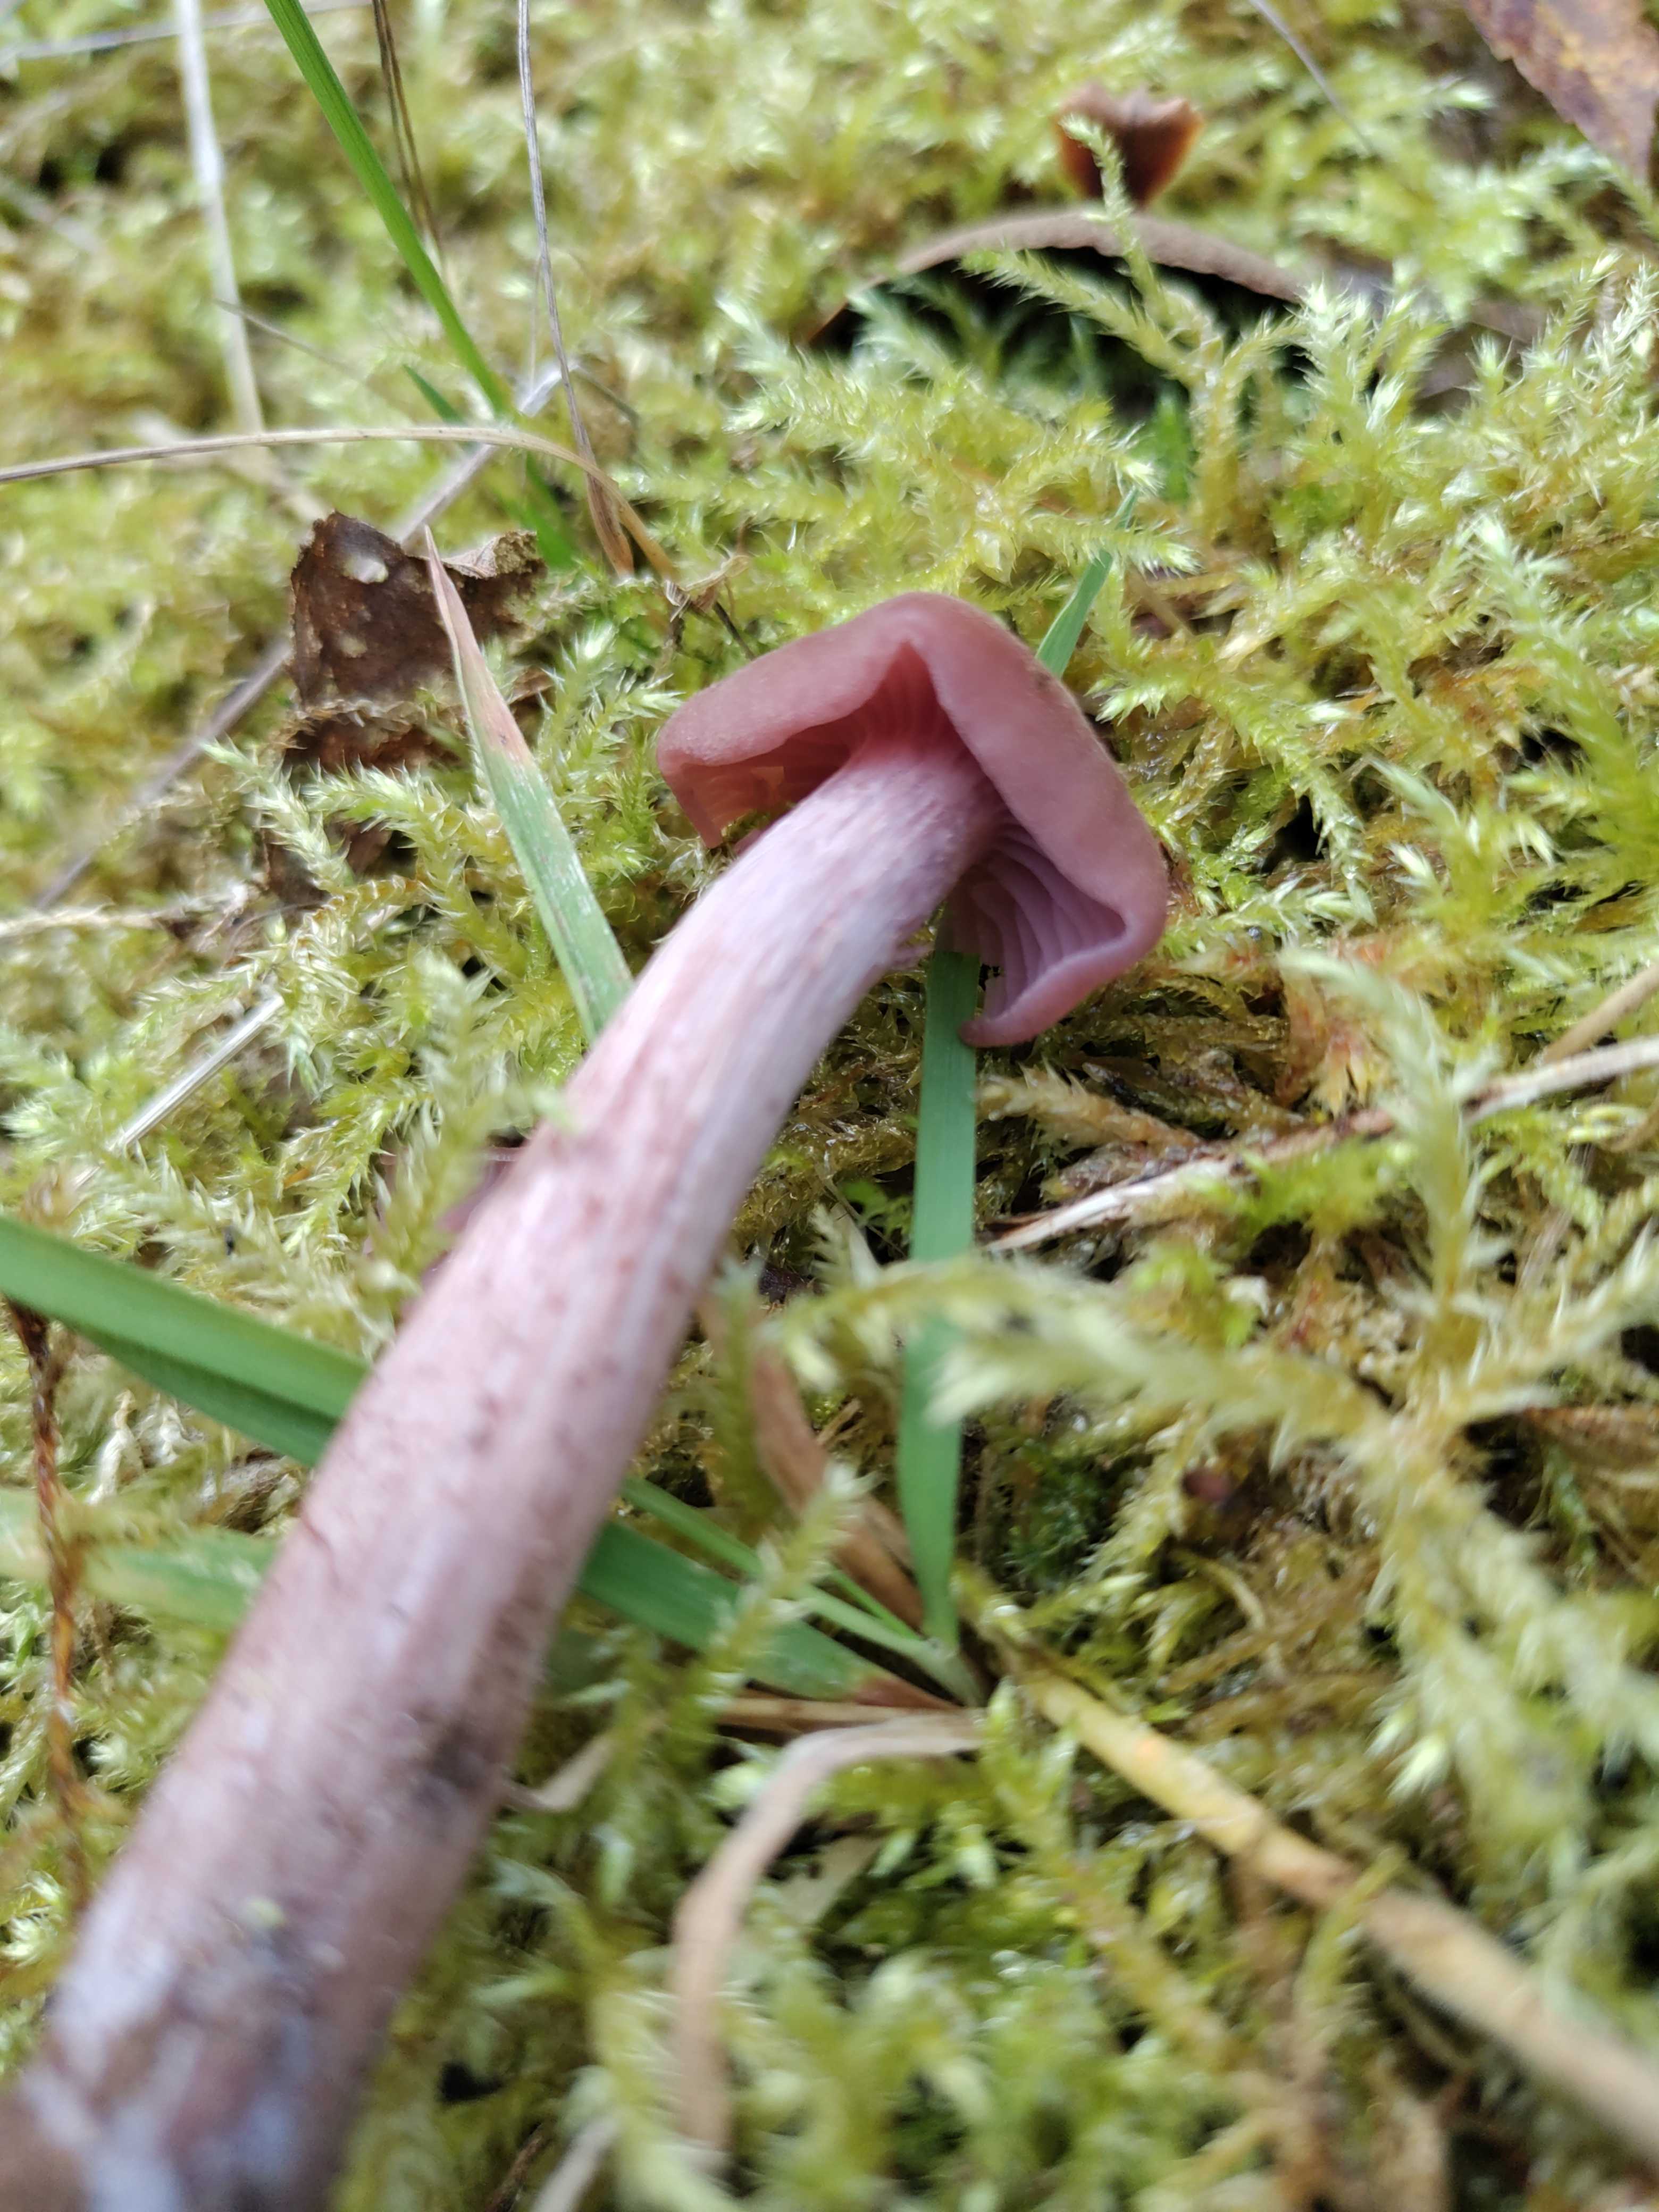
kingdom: Fungi
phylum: Basidiomycota
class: Agaricomycetes
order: Agaricales
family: Hydnangiaceae
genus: Laccaria
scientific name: Laccaria amethystina
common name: violet ametysthat
